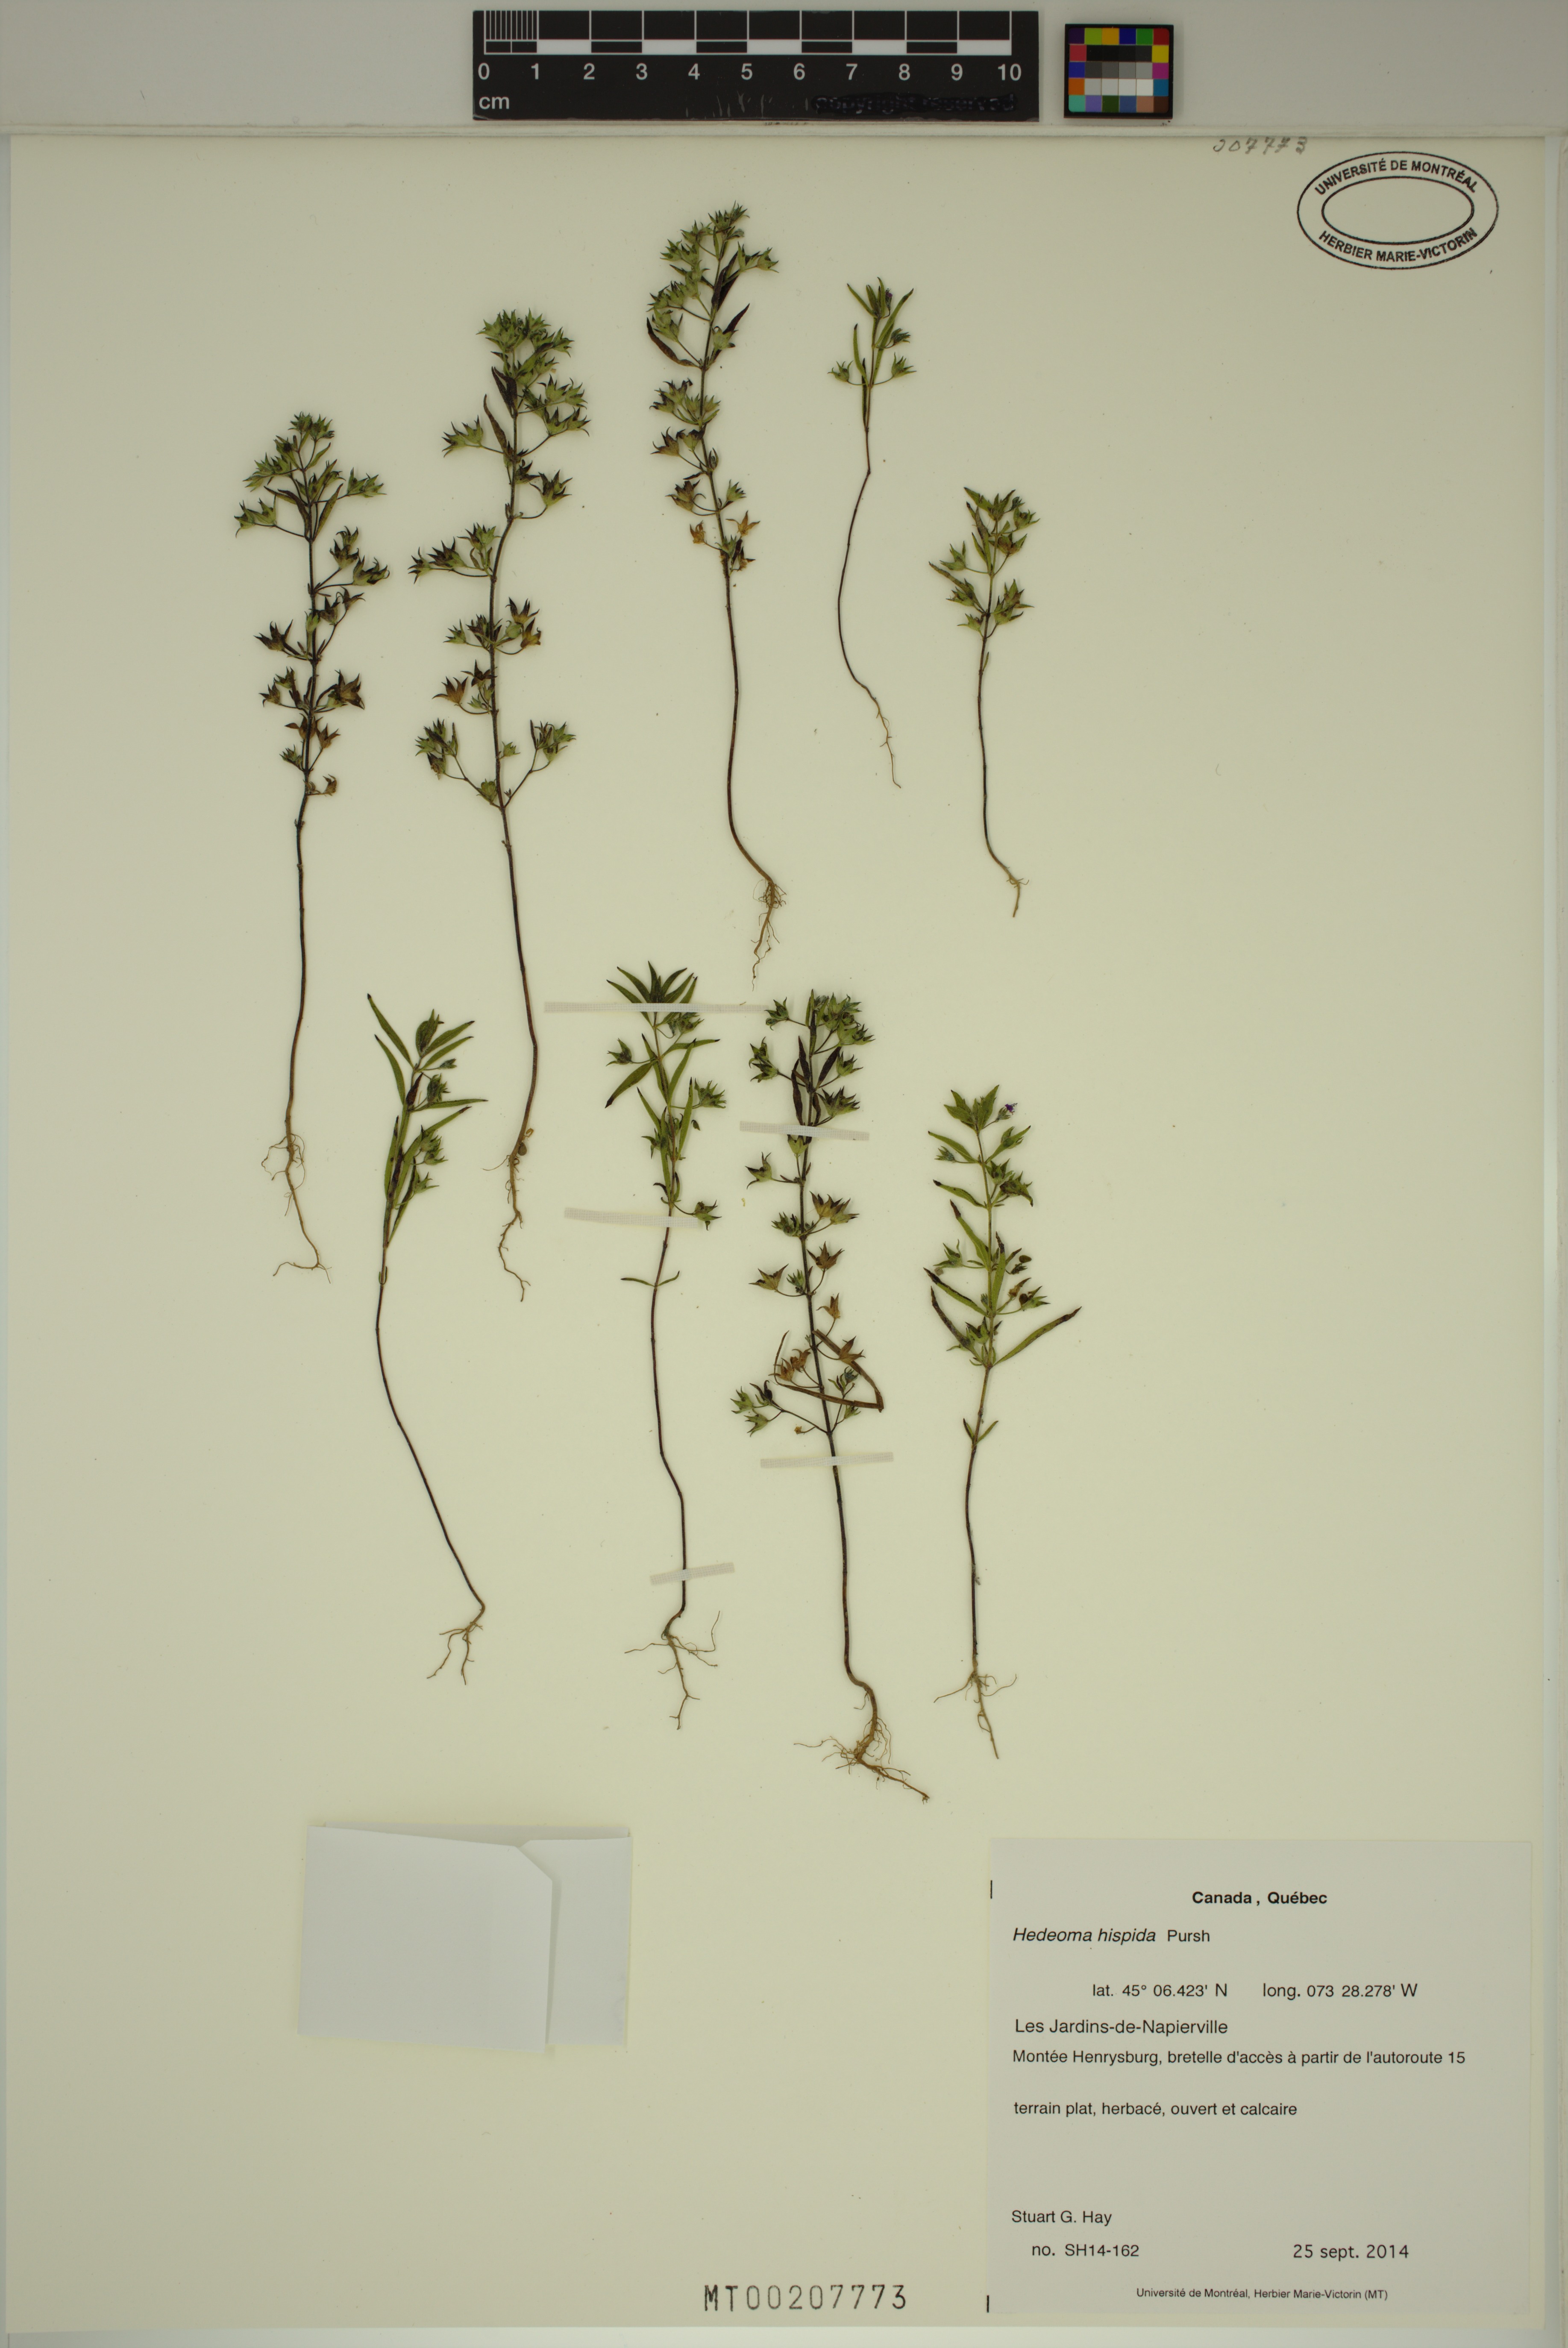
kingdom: Plantae
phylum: Tracheophyta
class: Magnoliopsida
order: Lamiales
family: Lamiaceae
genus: Hedeoma
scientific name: Hedeoma hispida
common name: Mock pennyroyal
